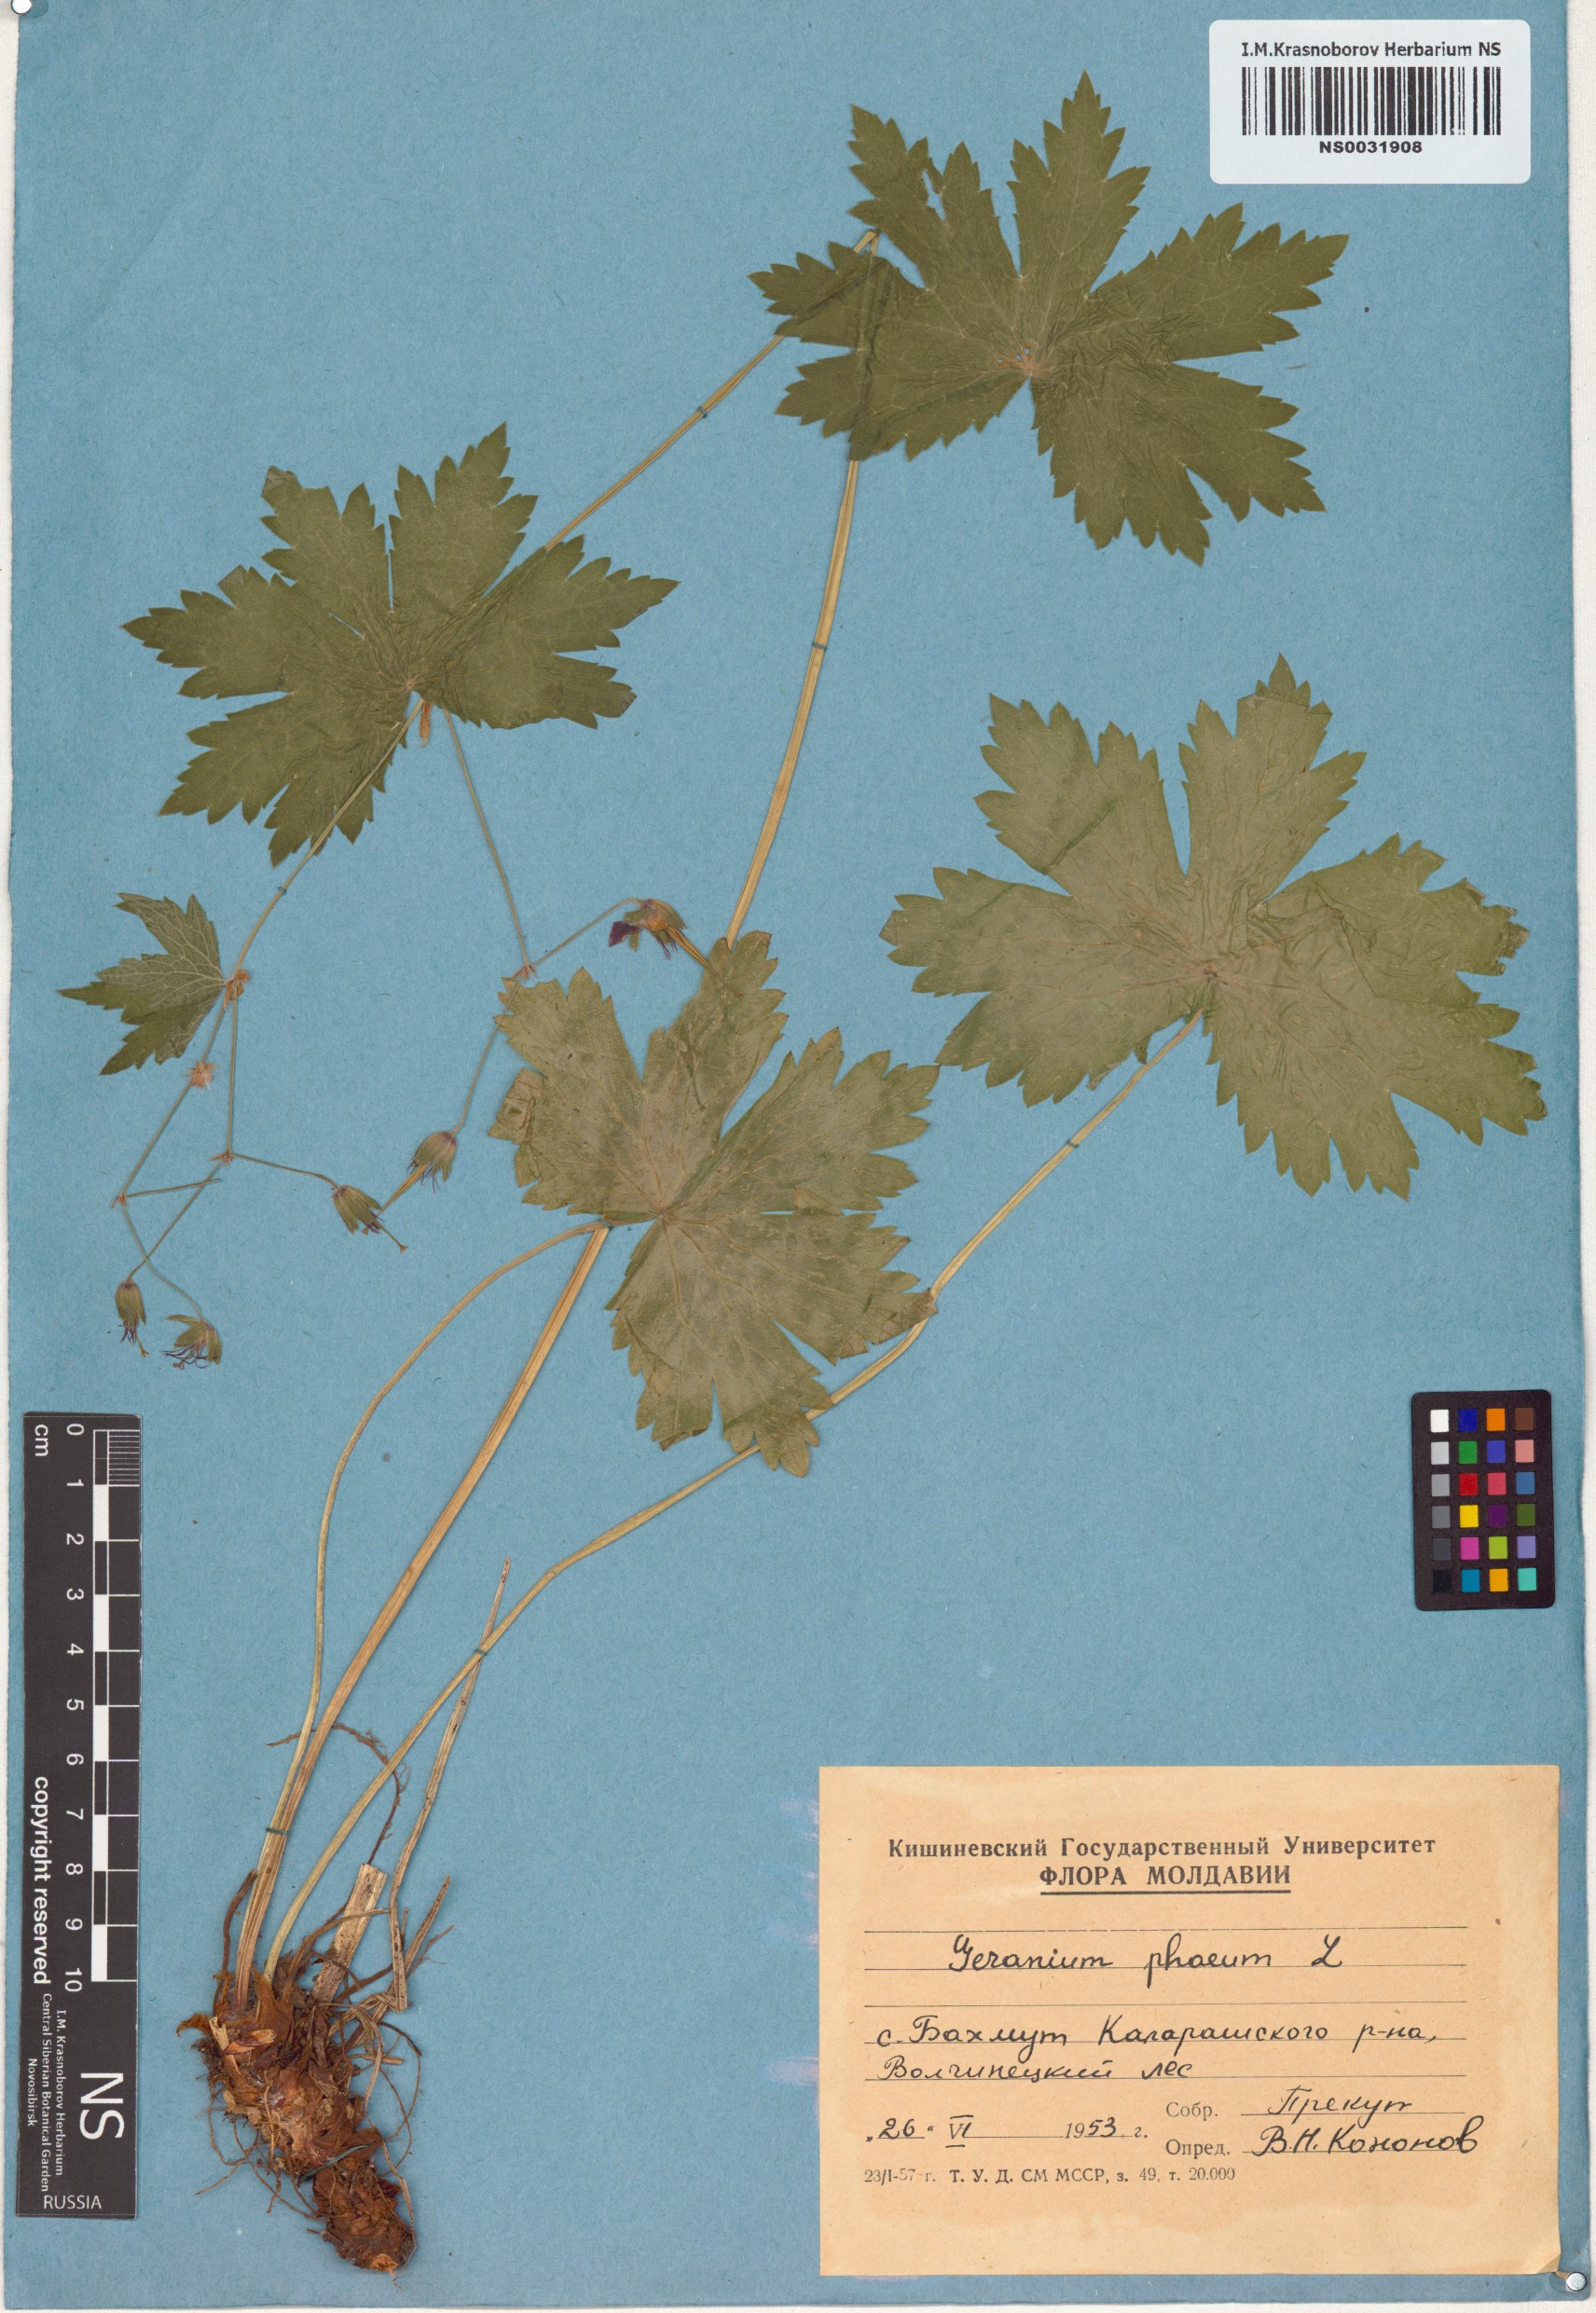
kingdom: Plantae
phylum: Tracheophyta
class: Magnoliopsida
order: Geraniales
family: Geraniaceae
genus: Geranium
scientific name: Geranium phaeum
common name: Dusky crane's-bill
